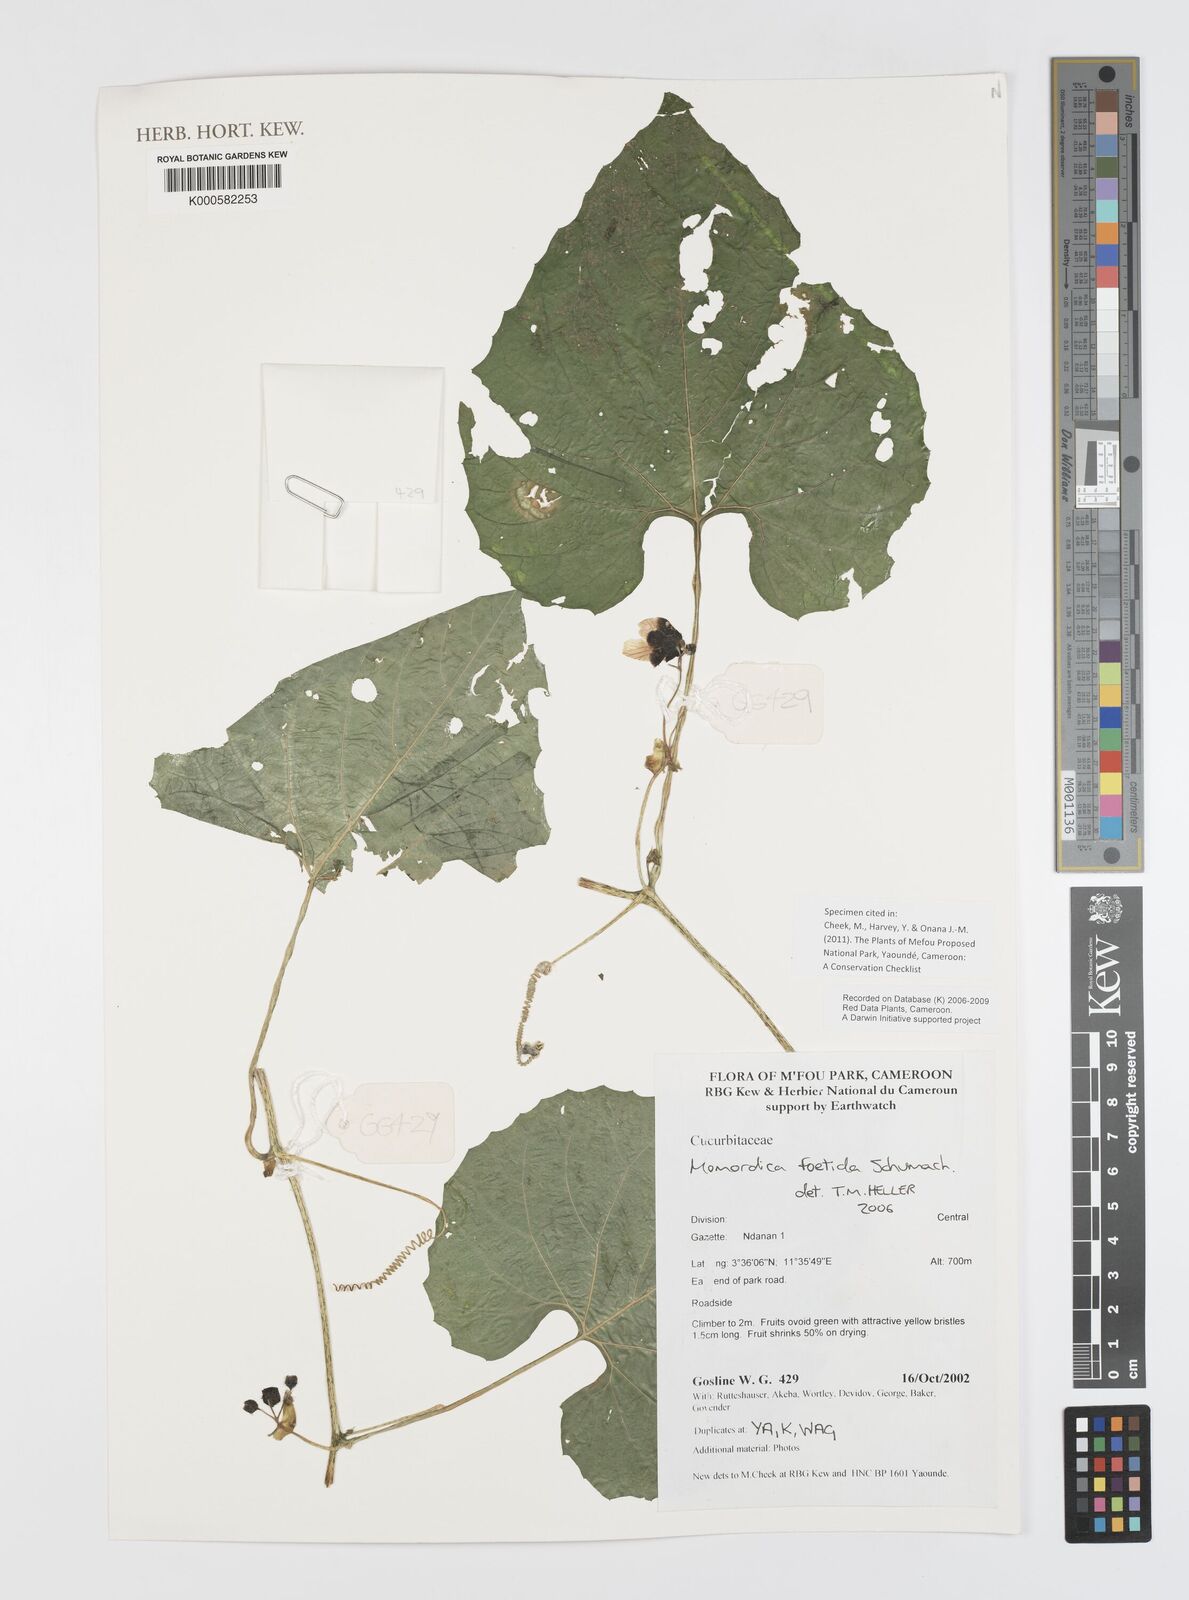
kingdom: Plantae
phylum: Tracheophyta
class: Magnoliopsida
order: Cucurbitales
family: Cucurbitaceae
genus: Momordica
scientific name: Momordica foetida
